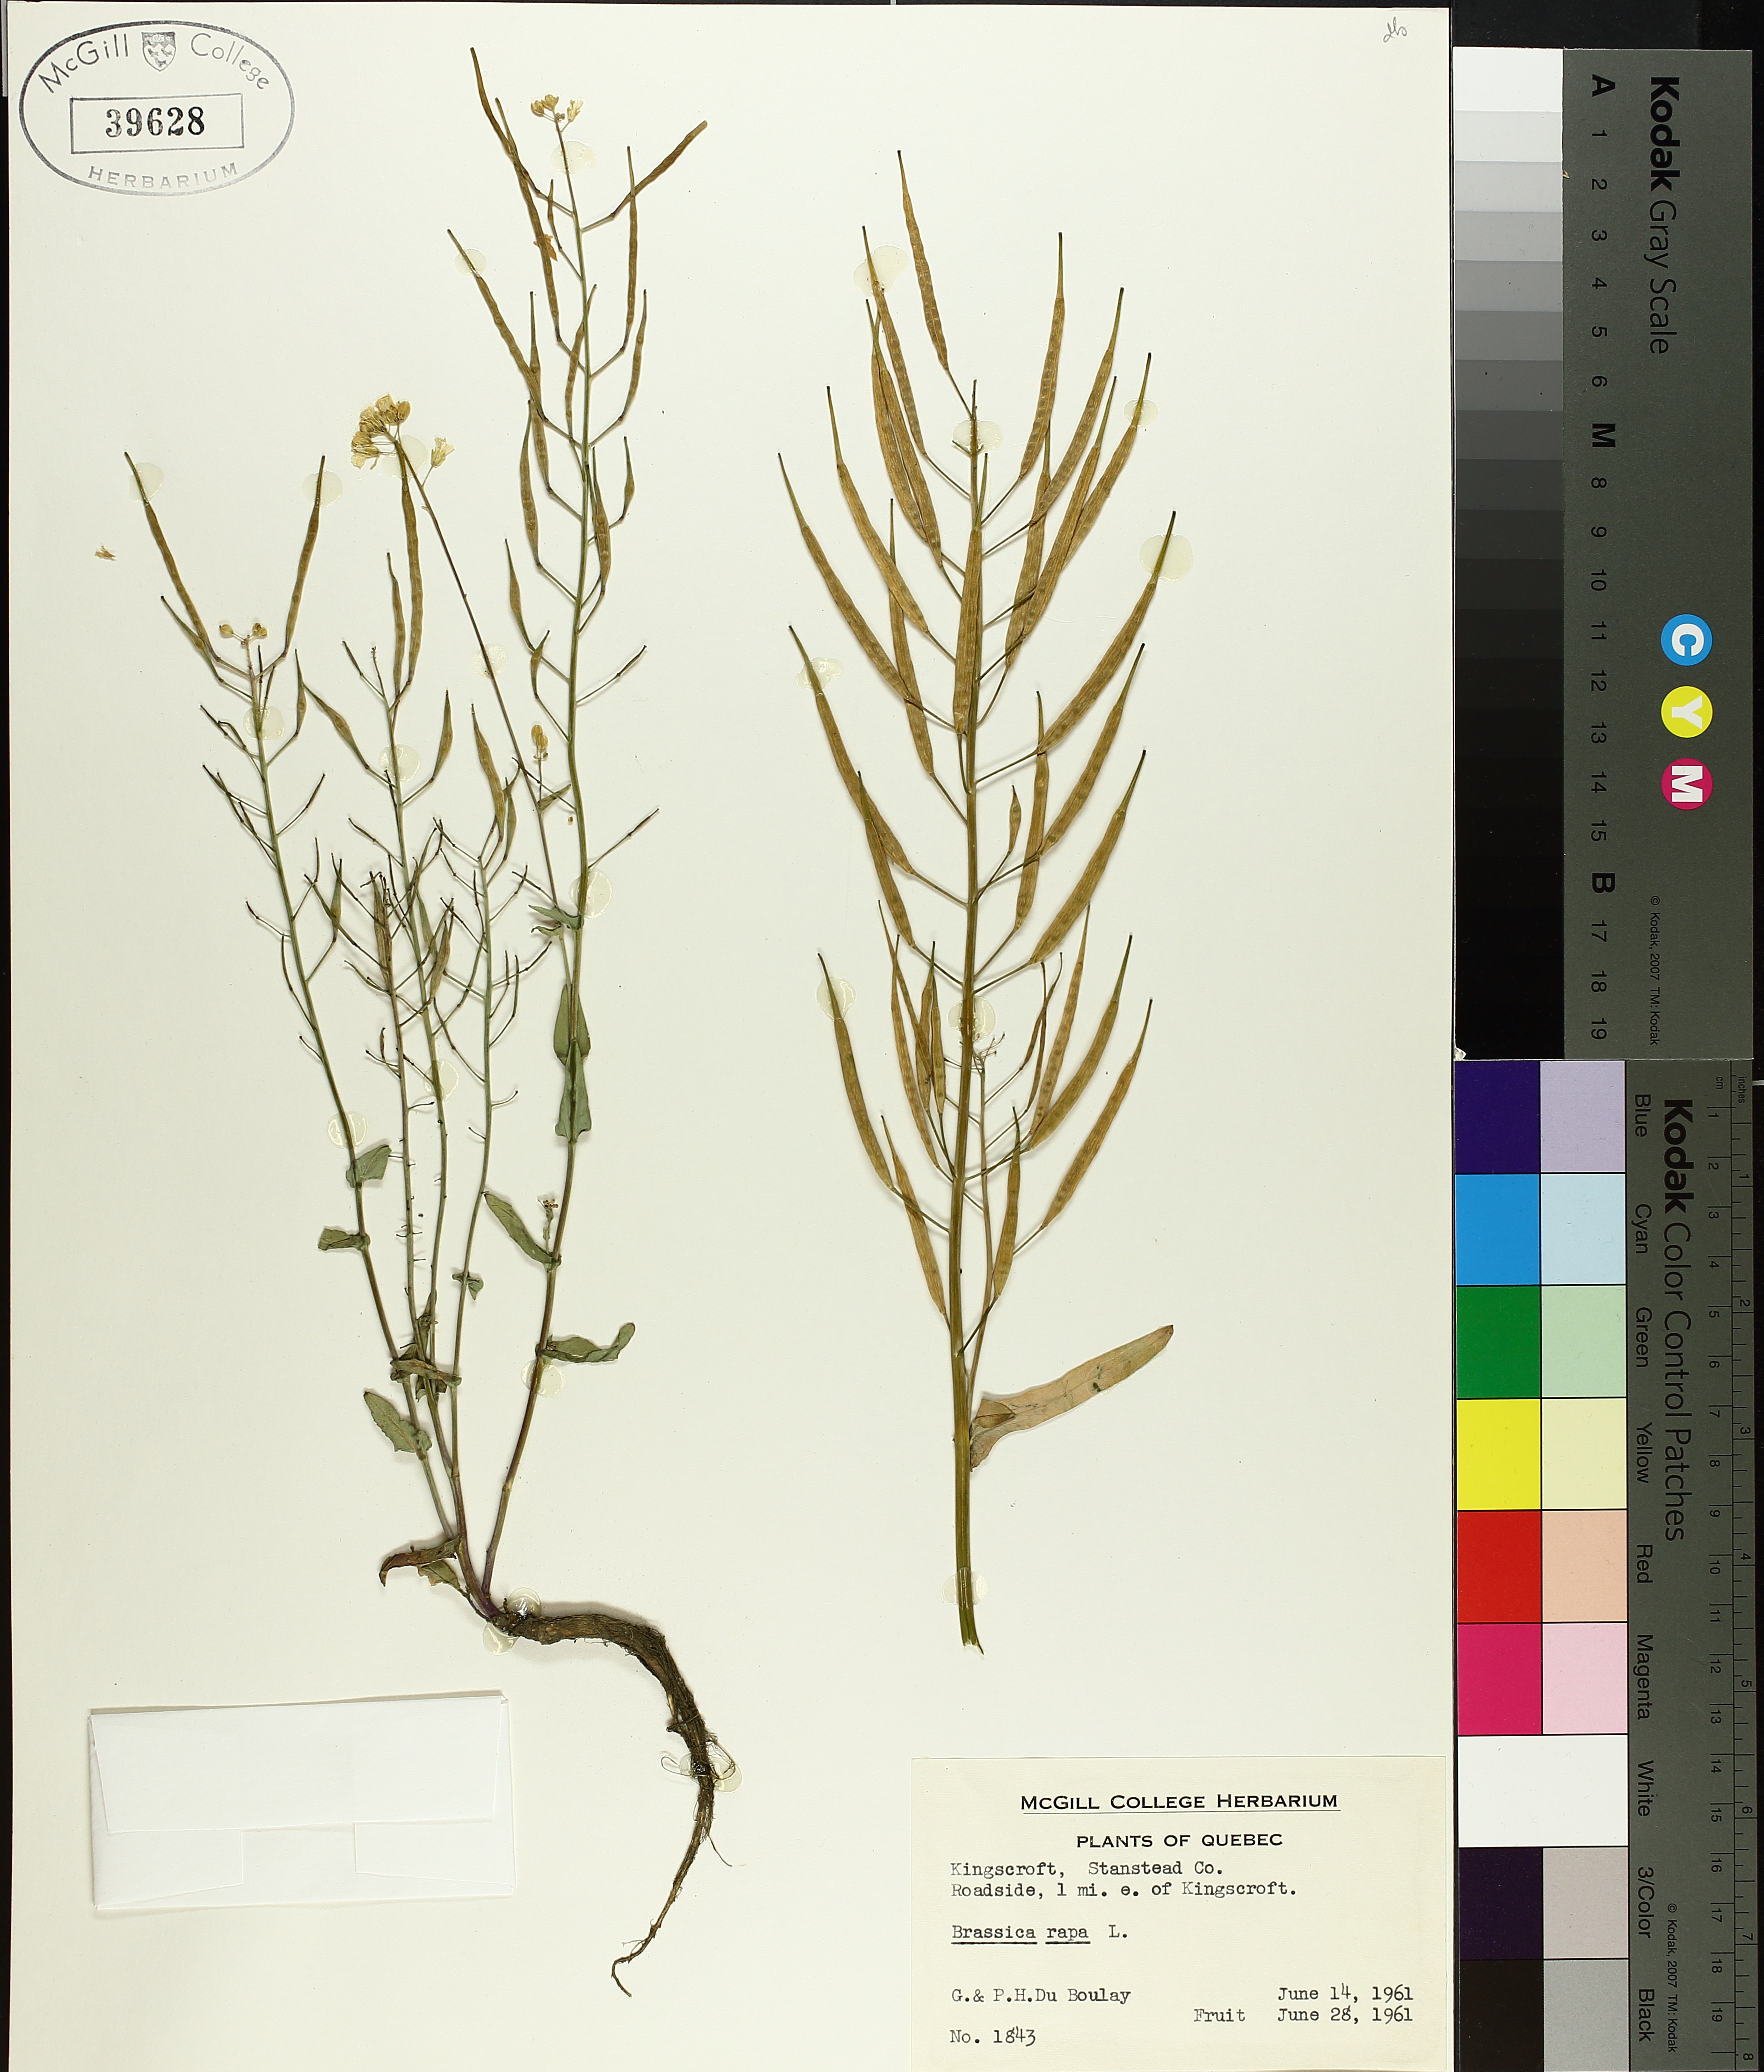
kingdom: Plantae
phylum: Tracheophyta
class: Magnoliopsida
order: Brassicales
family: Brassicaceae
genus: Brassica
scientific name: Brassica rapa
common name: Field mustard
